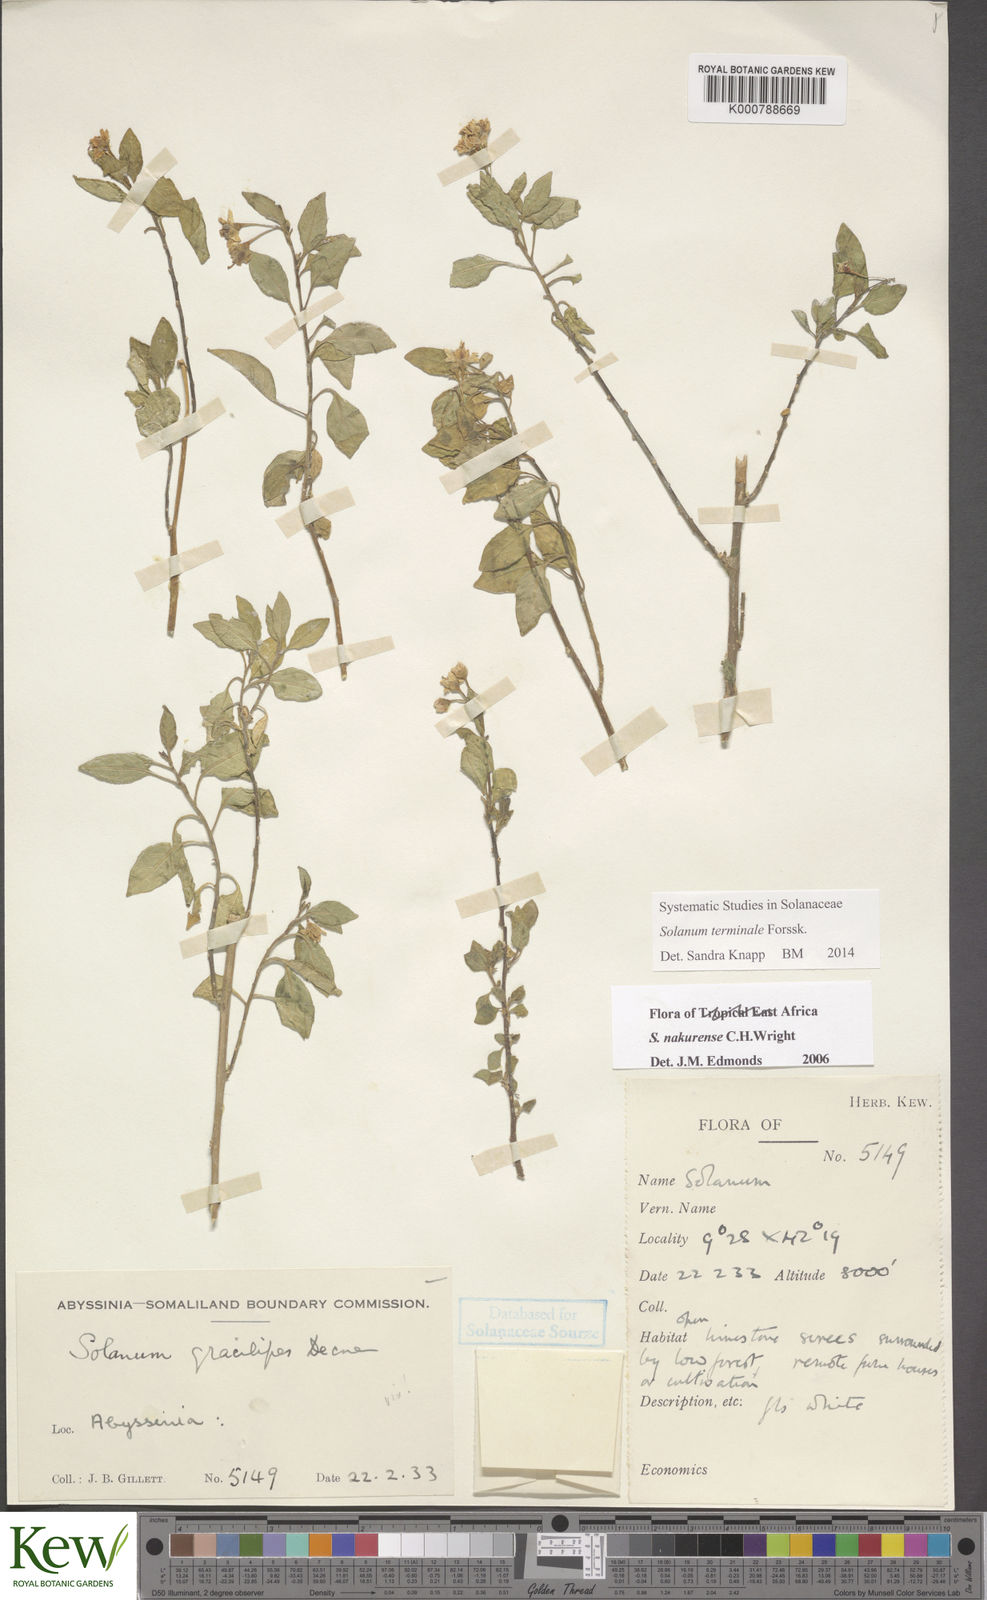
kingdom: Plantae
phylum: Tracheophyta
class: Magnoliopsida
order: Solanales
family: Solanaceae
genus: Solanum
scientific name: Solanum nakurense
